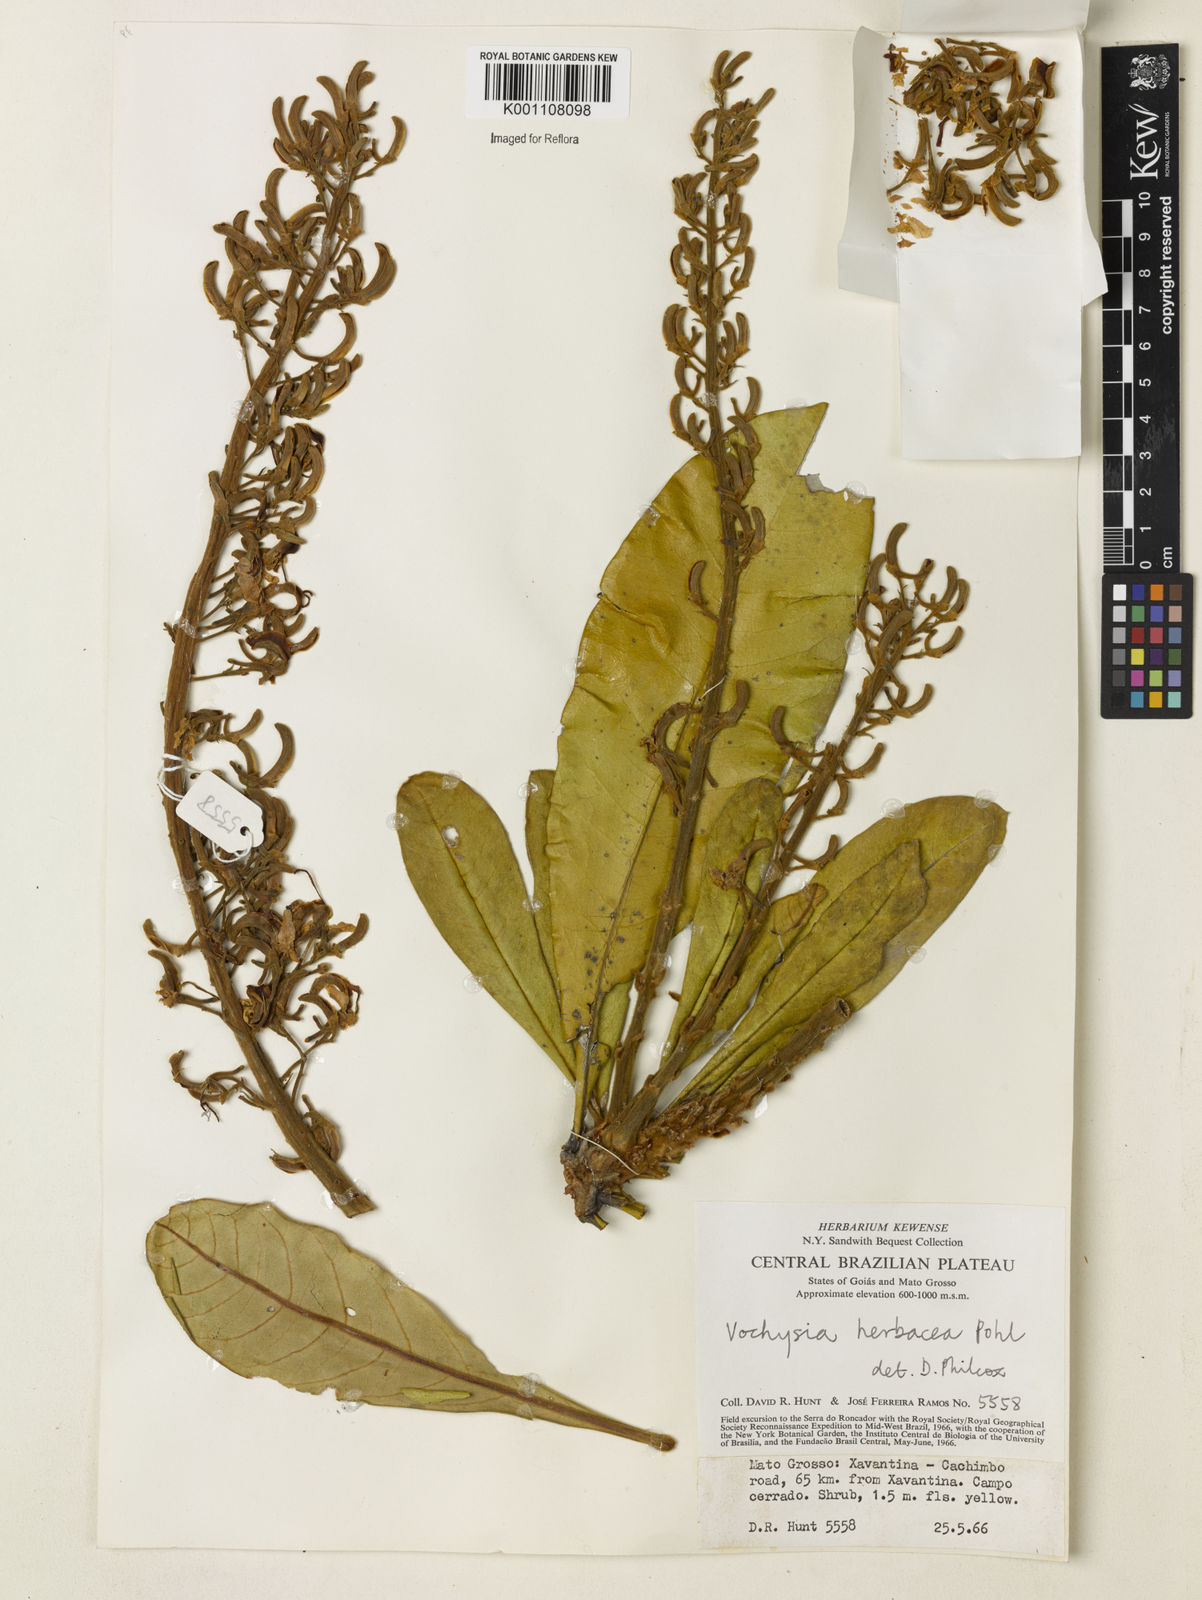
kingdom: Plantae
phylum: Tracheophyta
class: Magnoliopsida
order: Myrtales
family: Vochysiaceae
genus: Vochysia
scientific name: Vochysia herbacea
